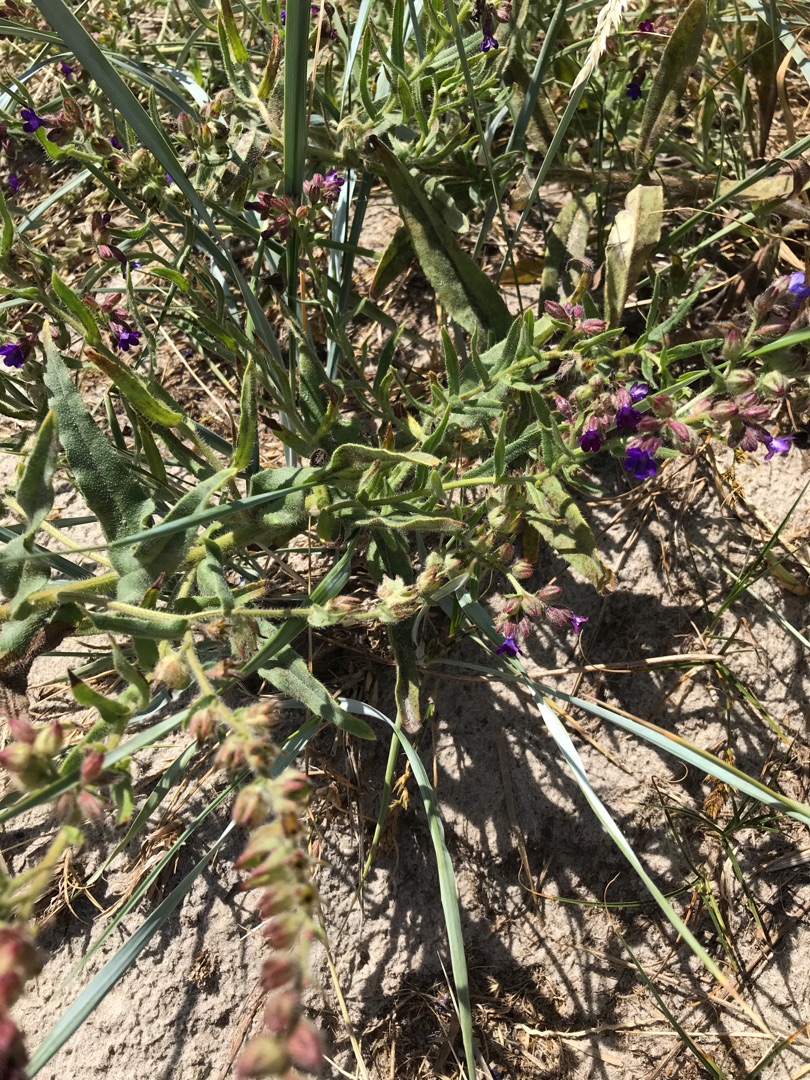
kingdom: Plantae
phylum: Tracheophyta
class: Magnoliopsida
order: Boraginales
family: Boraginaceae
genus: Anchusa
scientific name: Anchusa officinalis
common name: Læge-oksetunge
